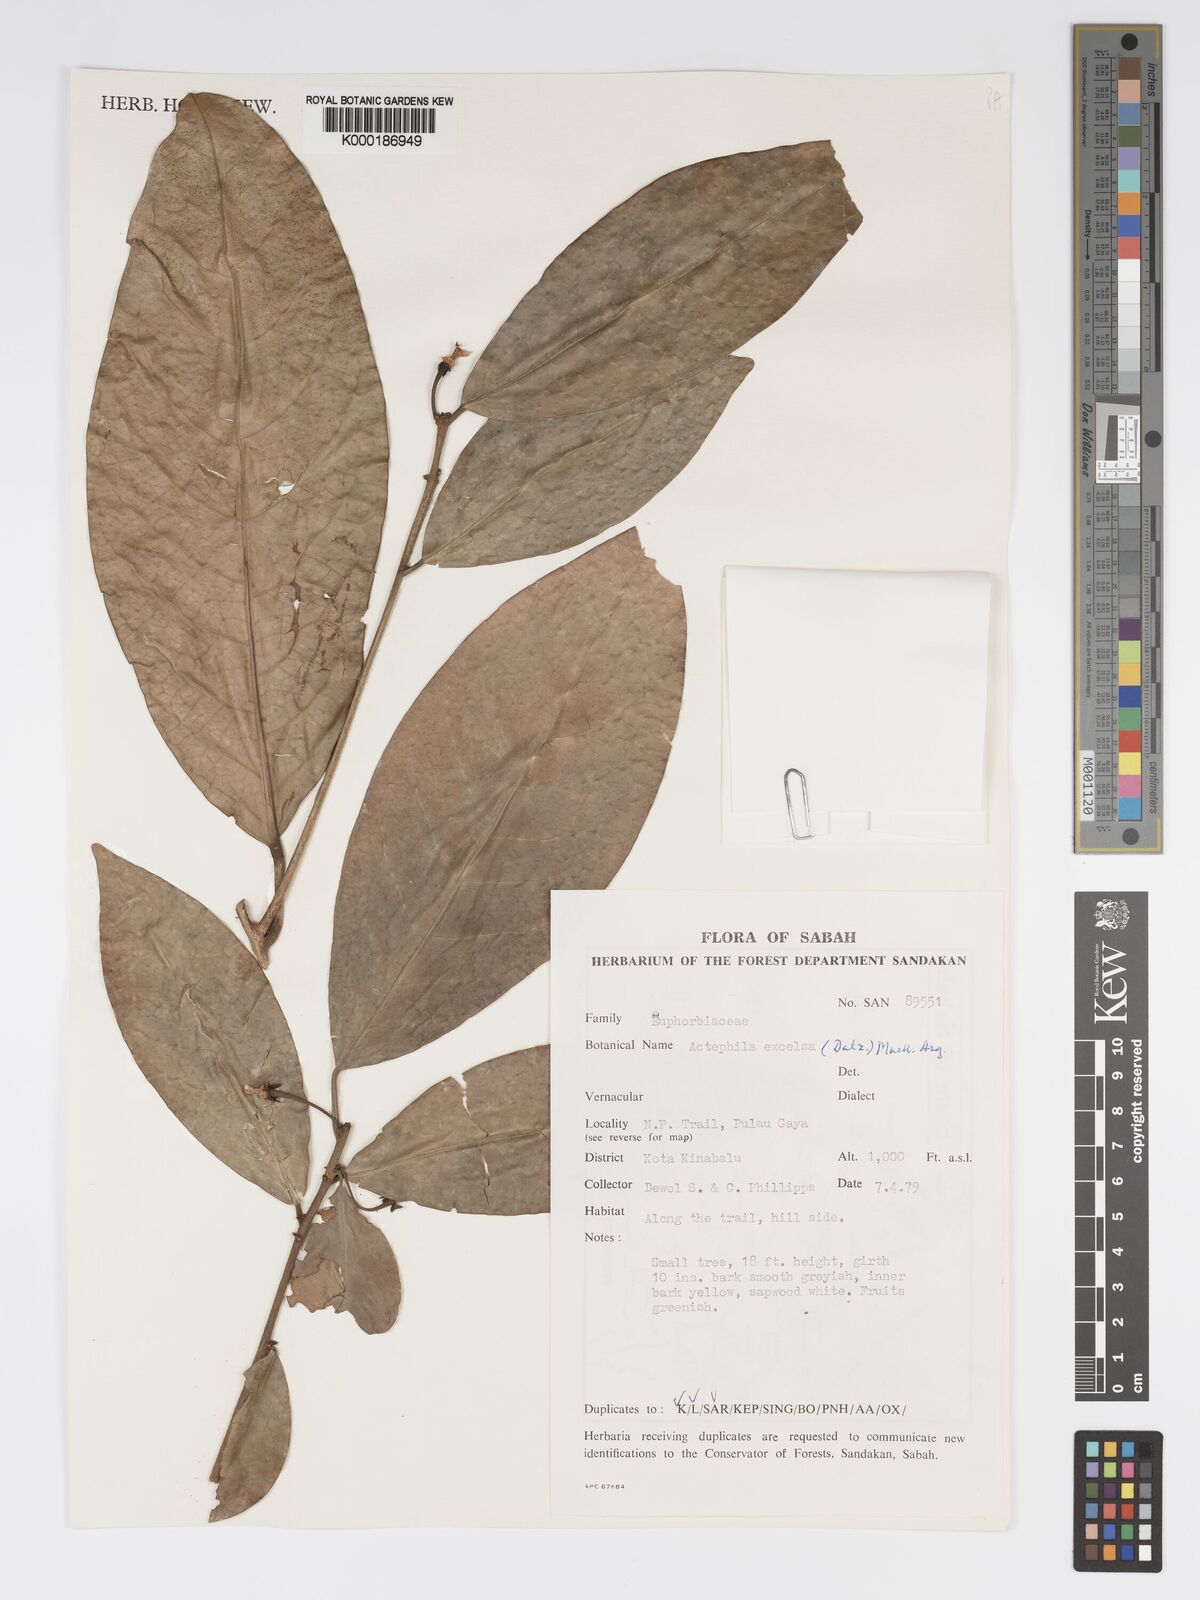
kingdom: Plantae
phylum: Tracheophyta
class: Magnoliopsida
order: Malpighiales
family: Phyllanthaceae
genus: Actephila
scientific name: Actephila
